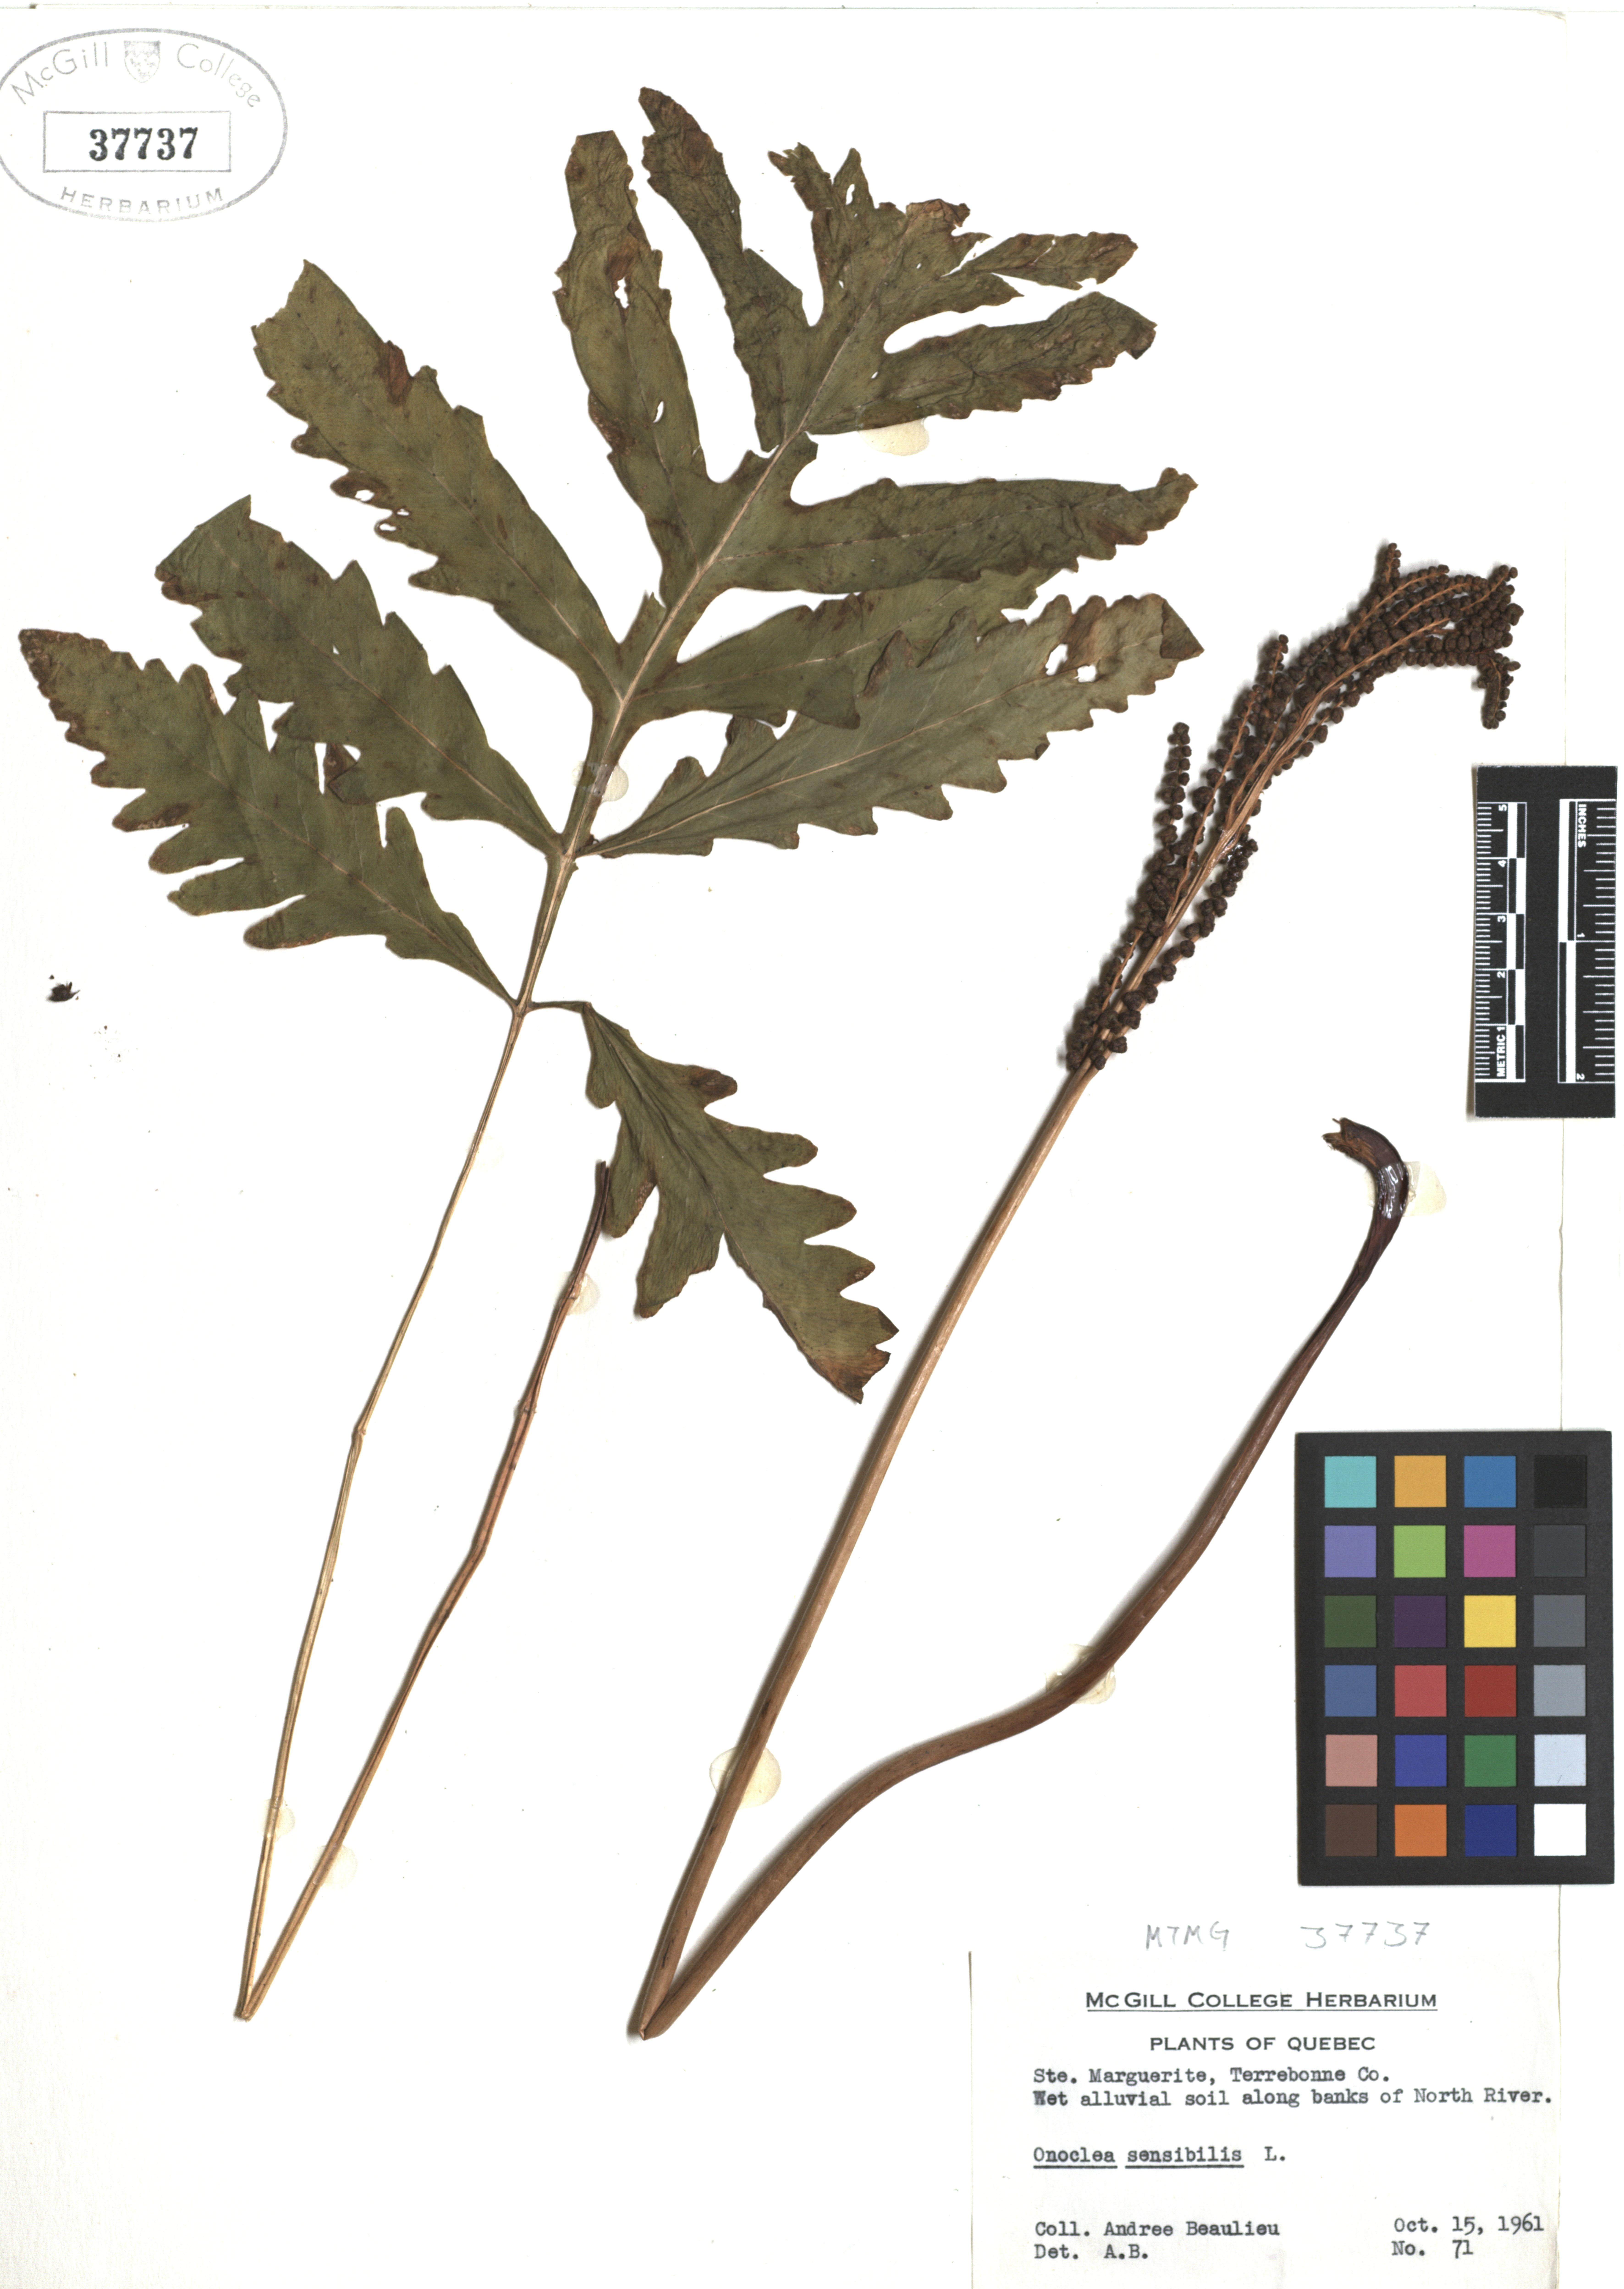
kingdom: Plantae
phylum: Tracheophyta
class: Polypodiopsida
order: Polypodiales
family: Onocleaceae
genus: Onoclea
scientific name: Onoclea sensibilis
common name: Sensitive fern
